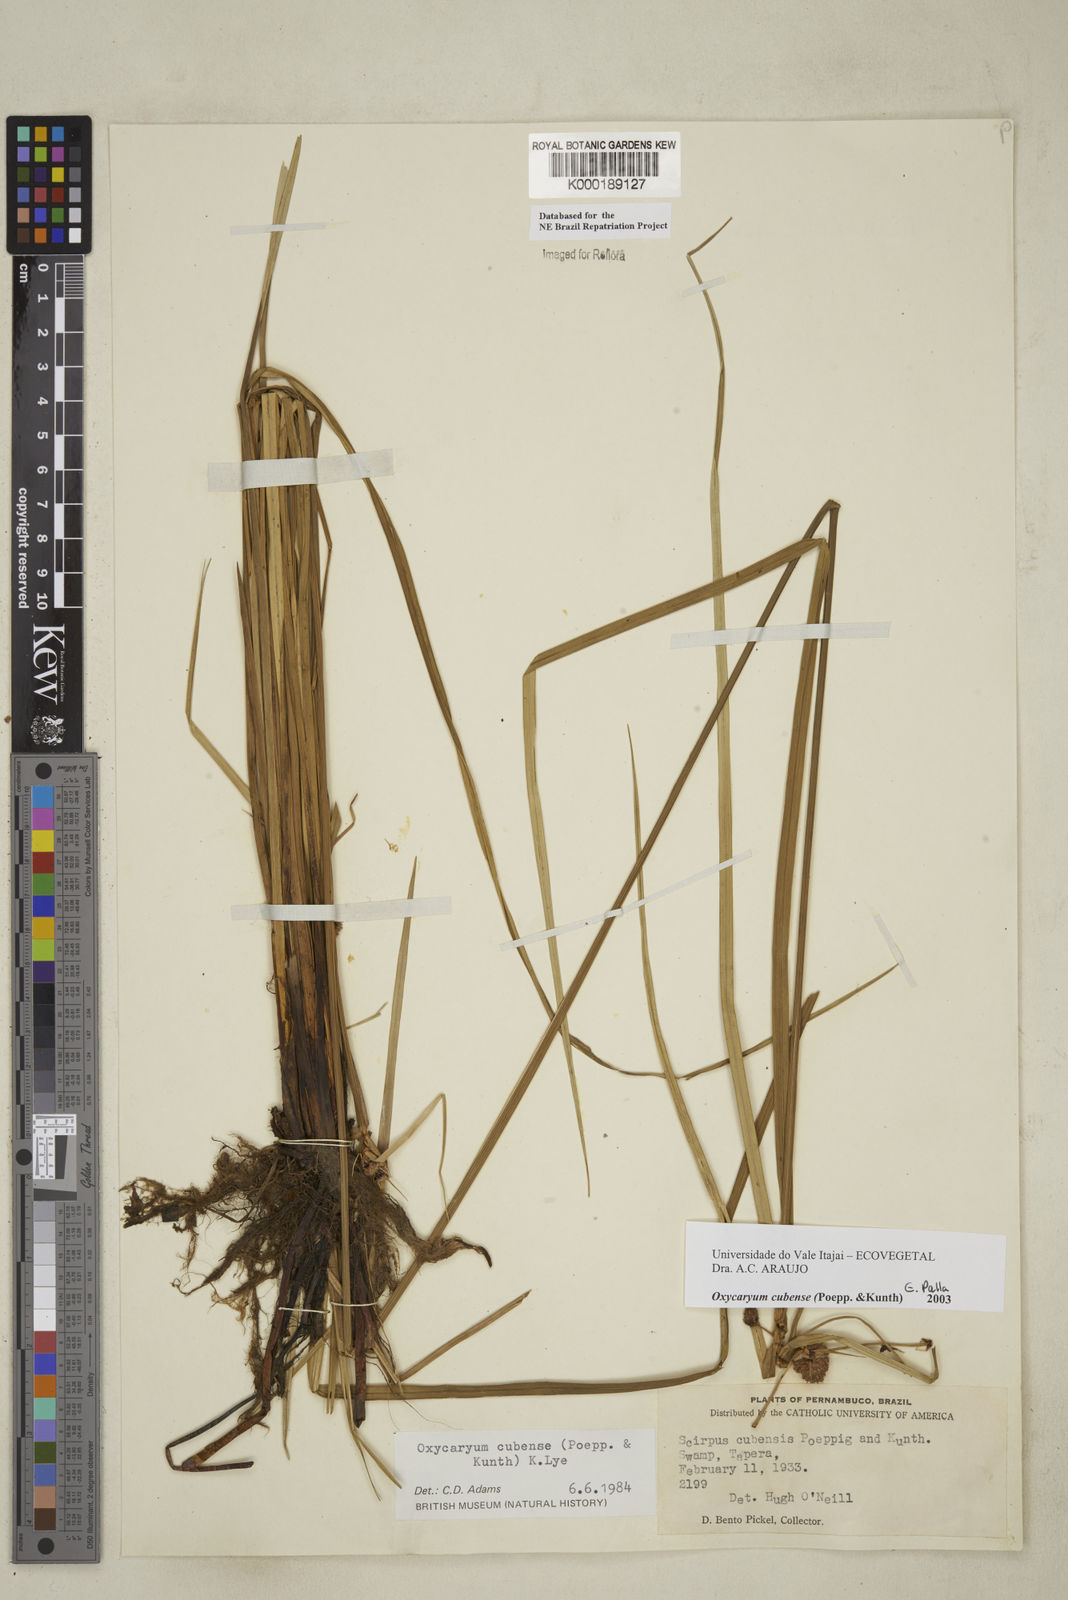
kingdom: Plantae
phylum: Tracheophyta
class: Liliopsida
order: Poales
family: Cyperaceae
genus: Cyperus
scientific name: Cyperus blepharoleptos
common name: Cuban bulrush
